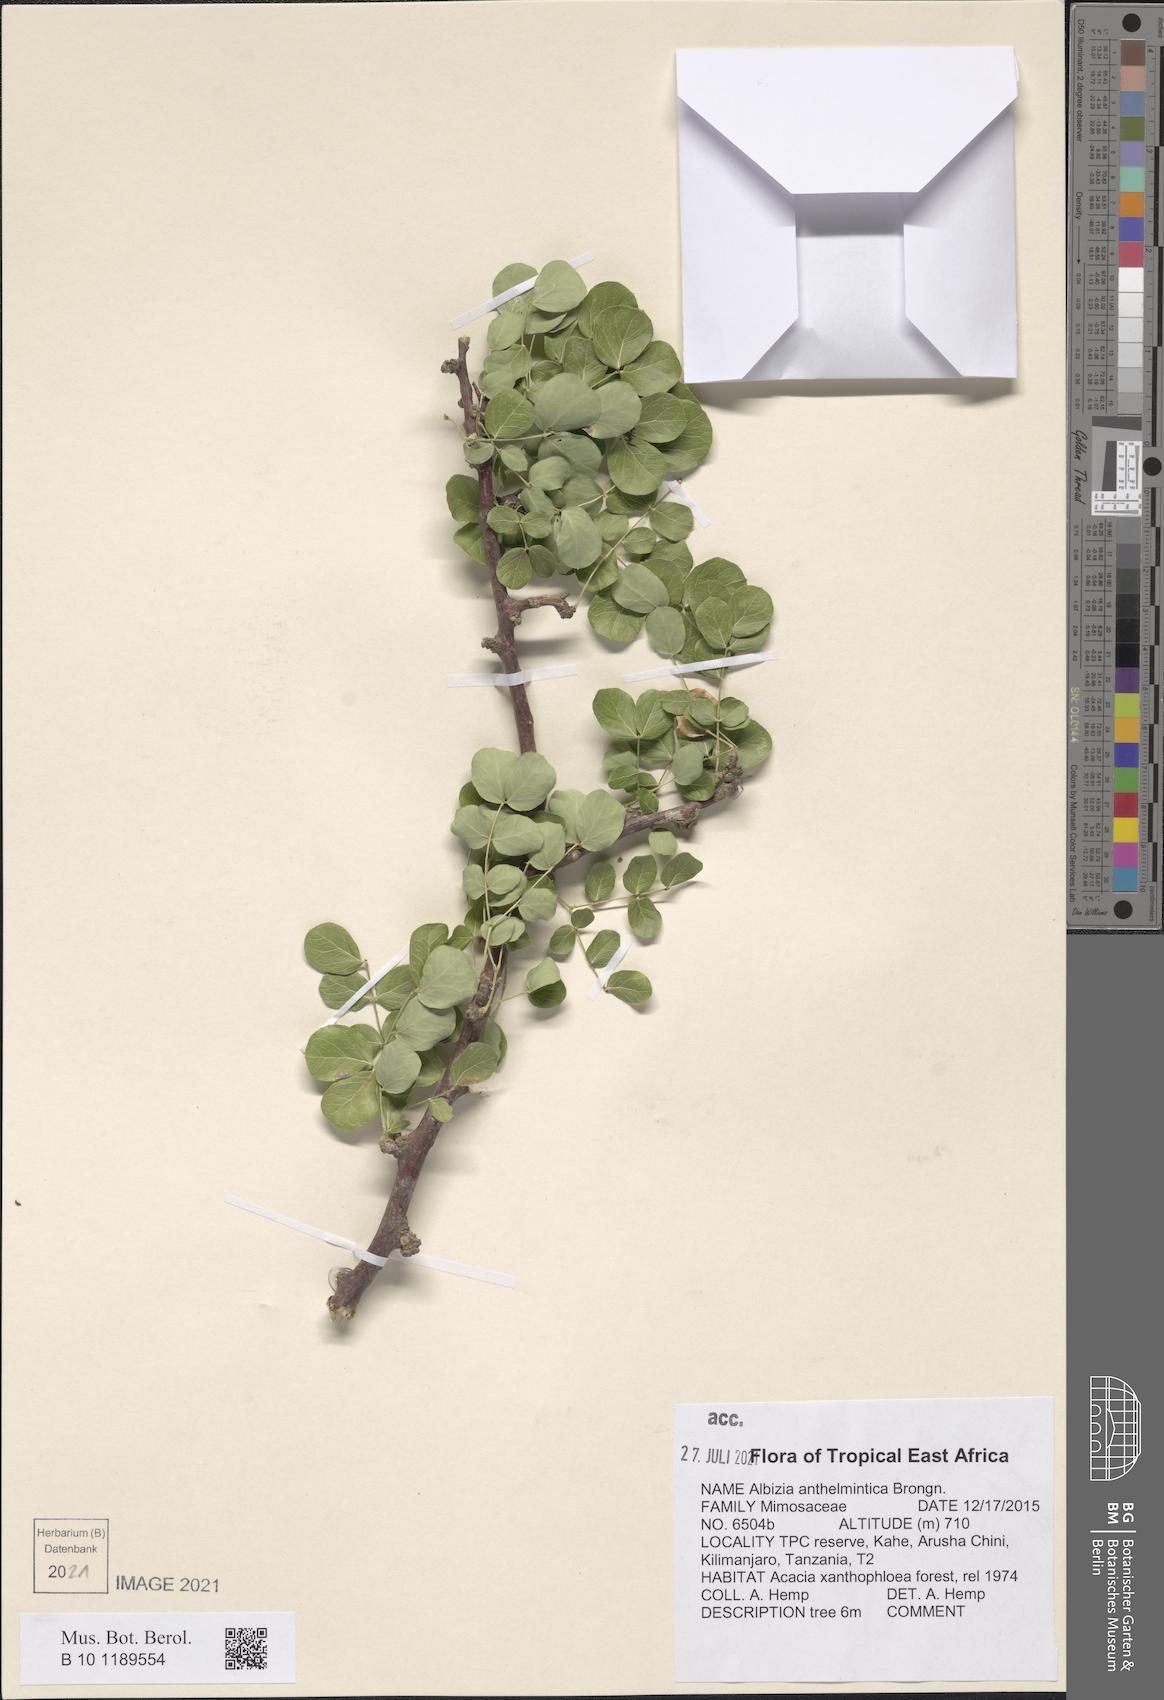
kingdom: Plantae
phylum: Tracheophyta
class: Magnoliopsida
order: Fabales
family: Fabaceae
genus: Albizia
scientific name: Albizia anthelmintica
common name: Worm-bark false-thorn
